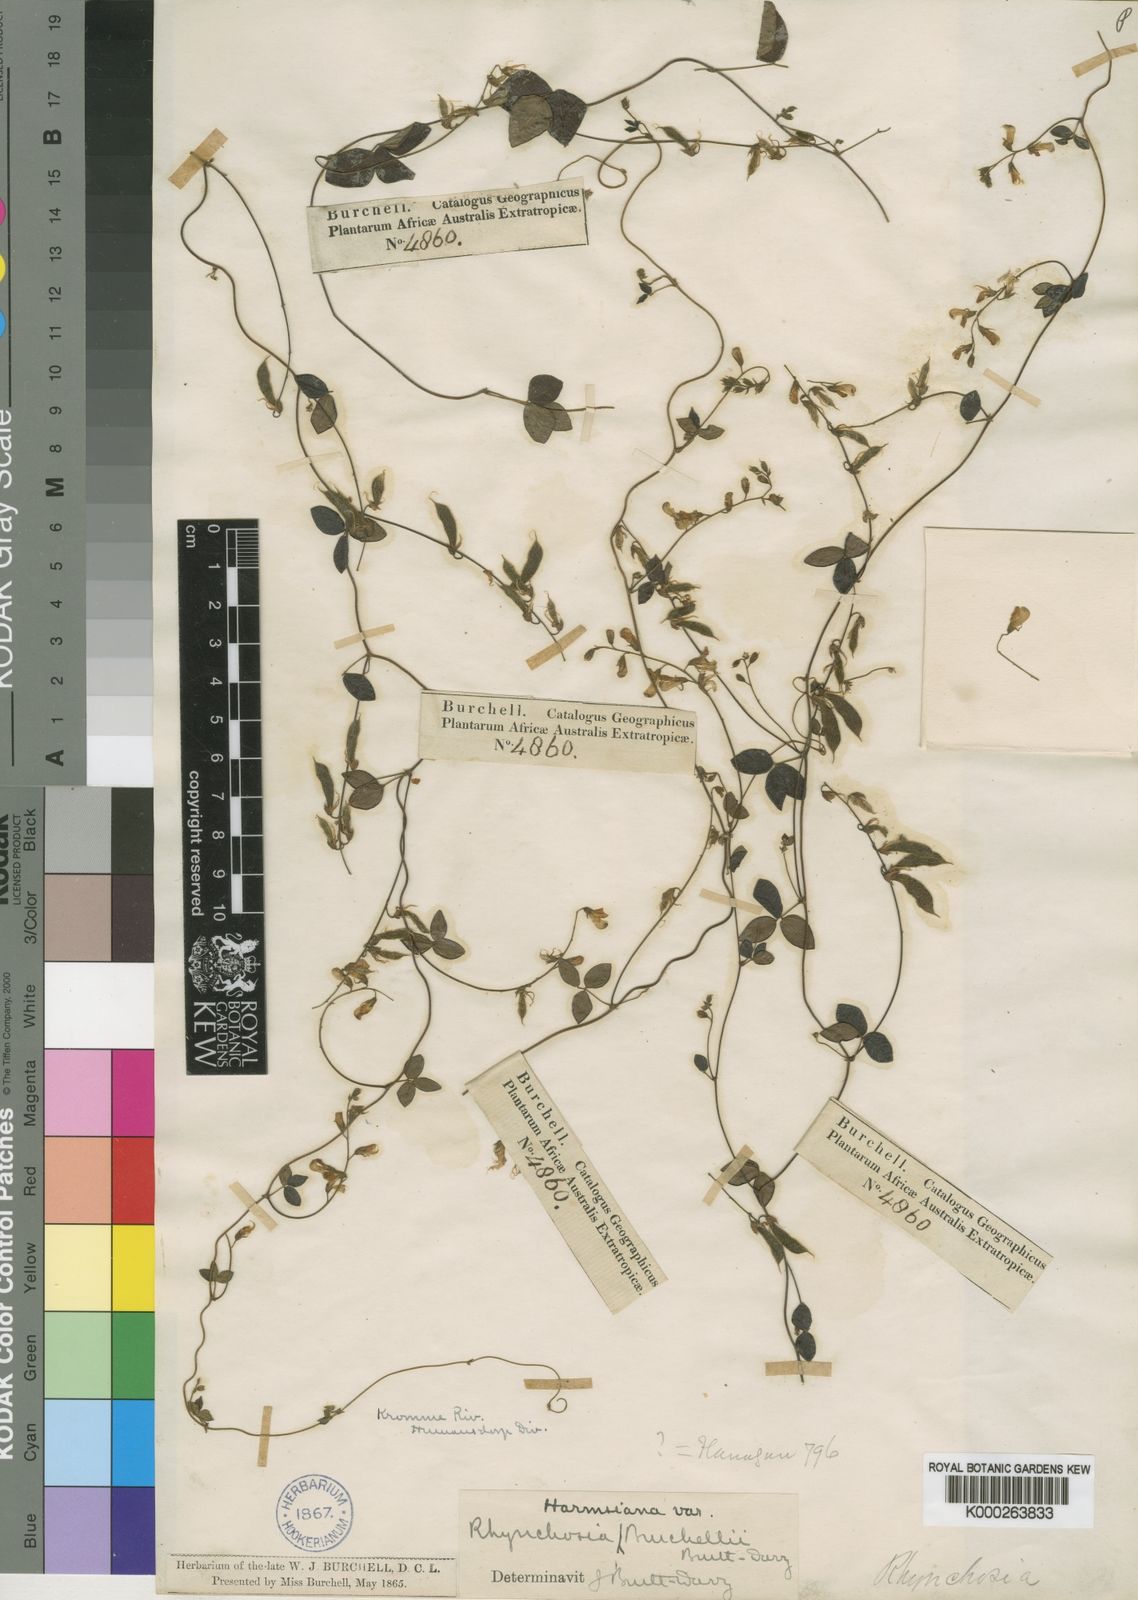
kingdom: Plantae
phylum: Tracheophyta
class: Magnoliopsida
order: Fabales
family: Fabaceae
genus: Rhynchosia
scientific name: Rhynchosia harmsiana
